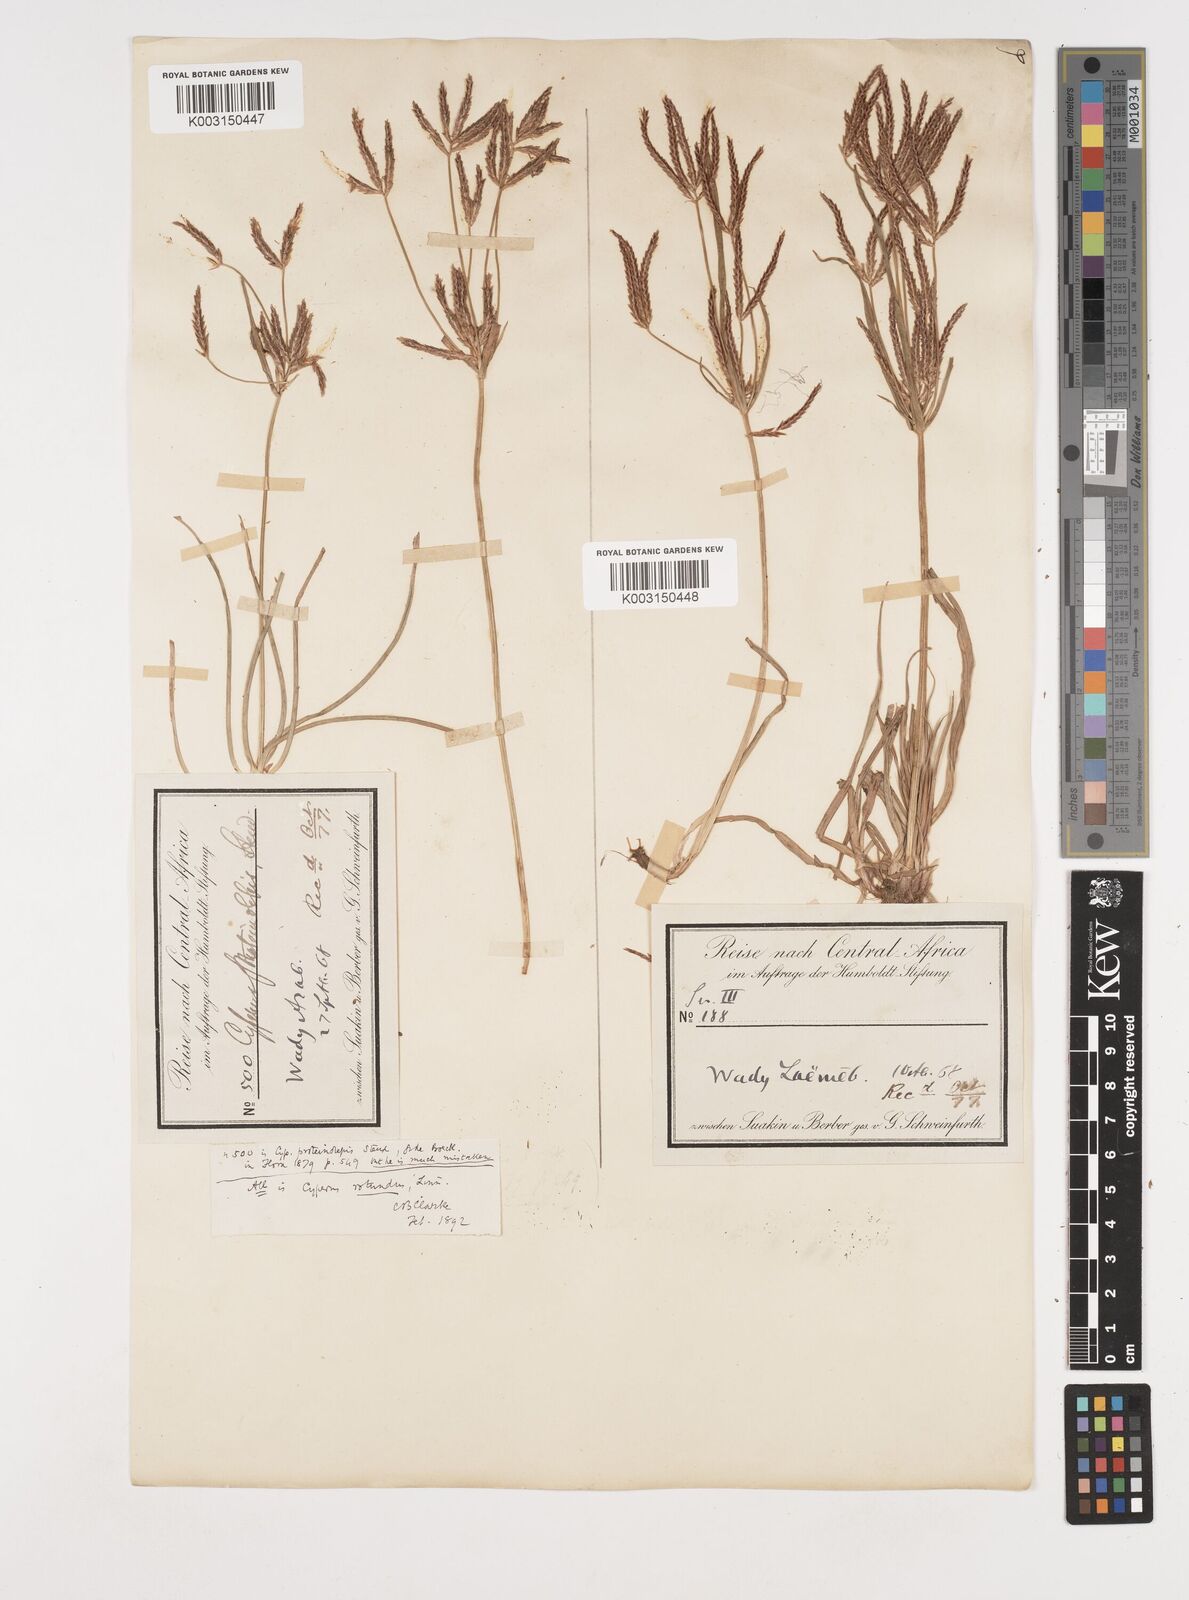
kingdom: Plantae
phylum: Tracheophyta
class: Liliopsida
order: Poales
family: Cyperaceae
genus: Cyperus
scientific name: Cyperus rotundus
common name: Nutgrass
